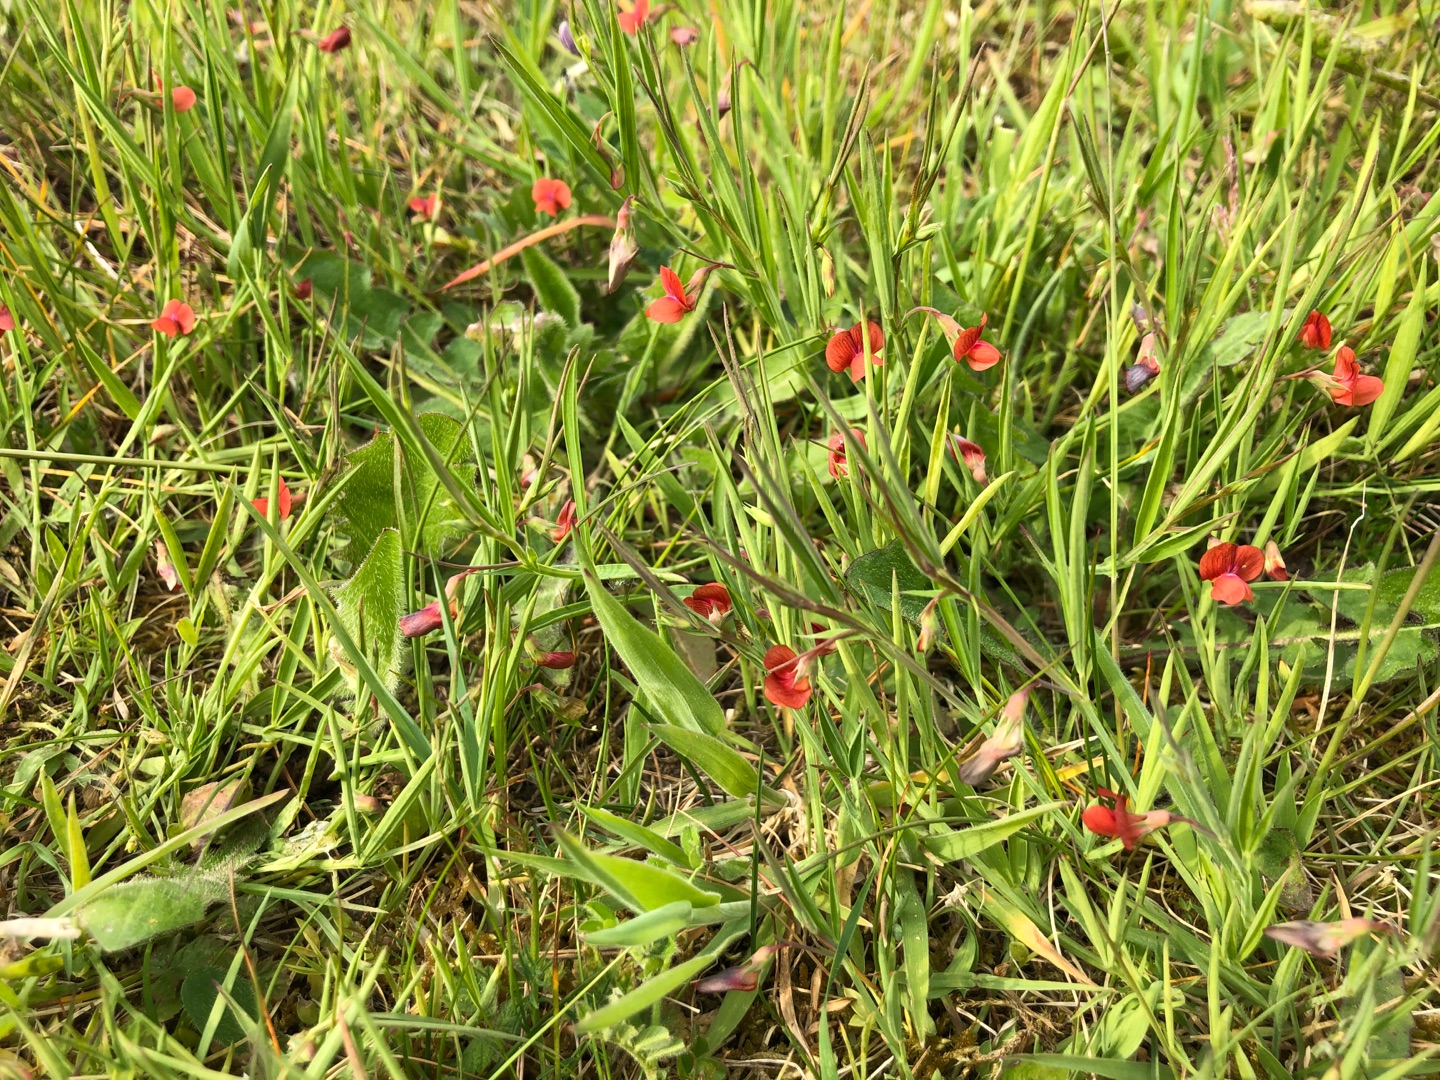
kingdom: Plantae
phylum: Tracheophyta
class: Magnoliopsida
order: Fabales
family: Fabaceae
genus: Lathyrus
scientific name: Lathyrus sphaericus
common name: Enblomstret fladbælg
